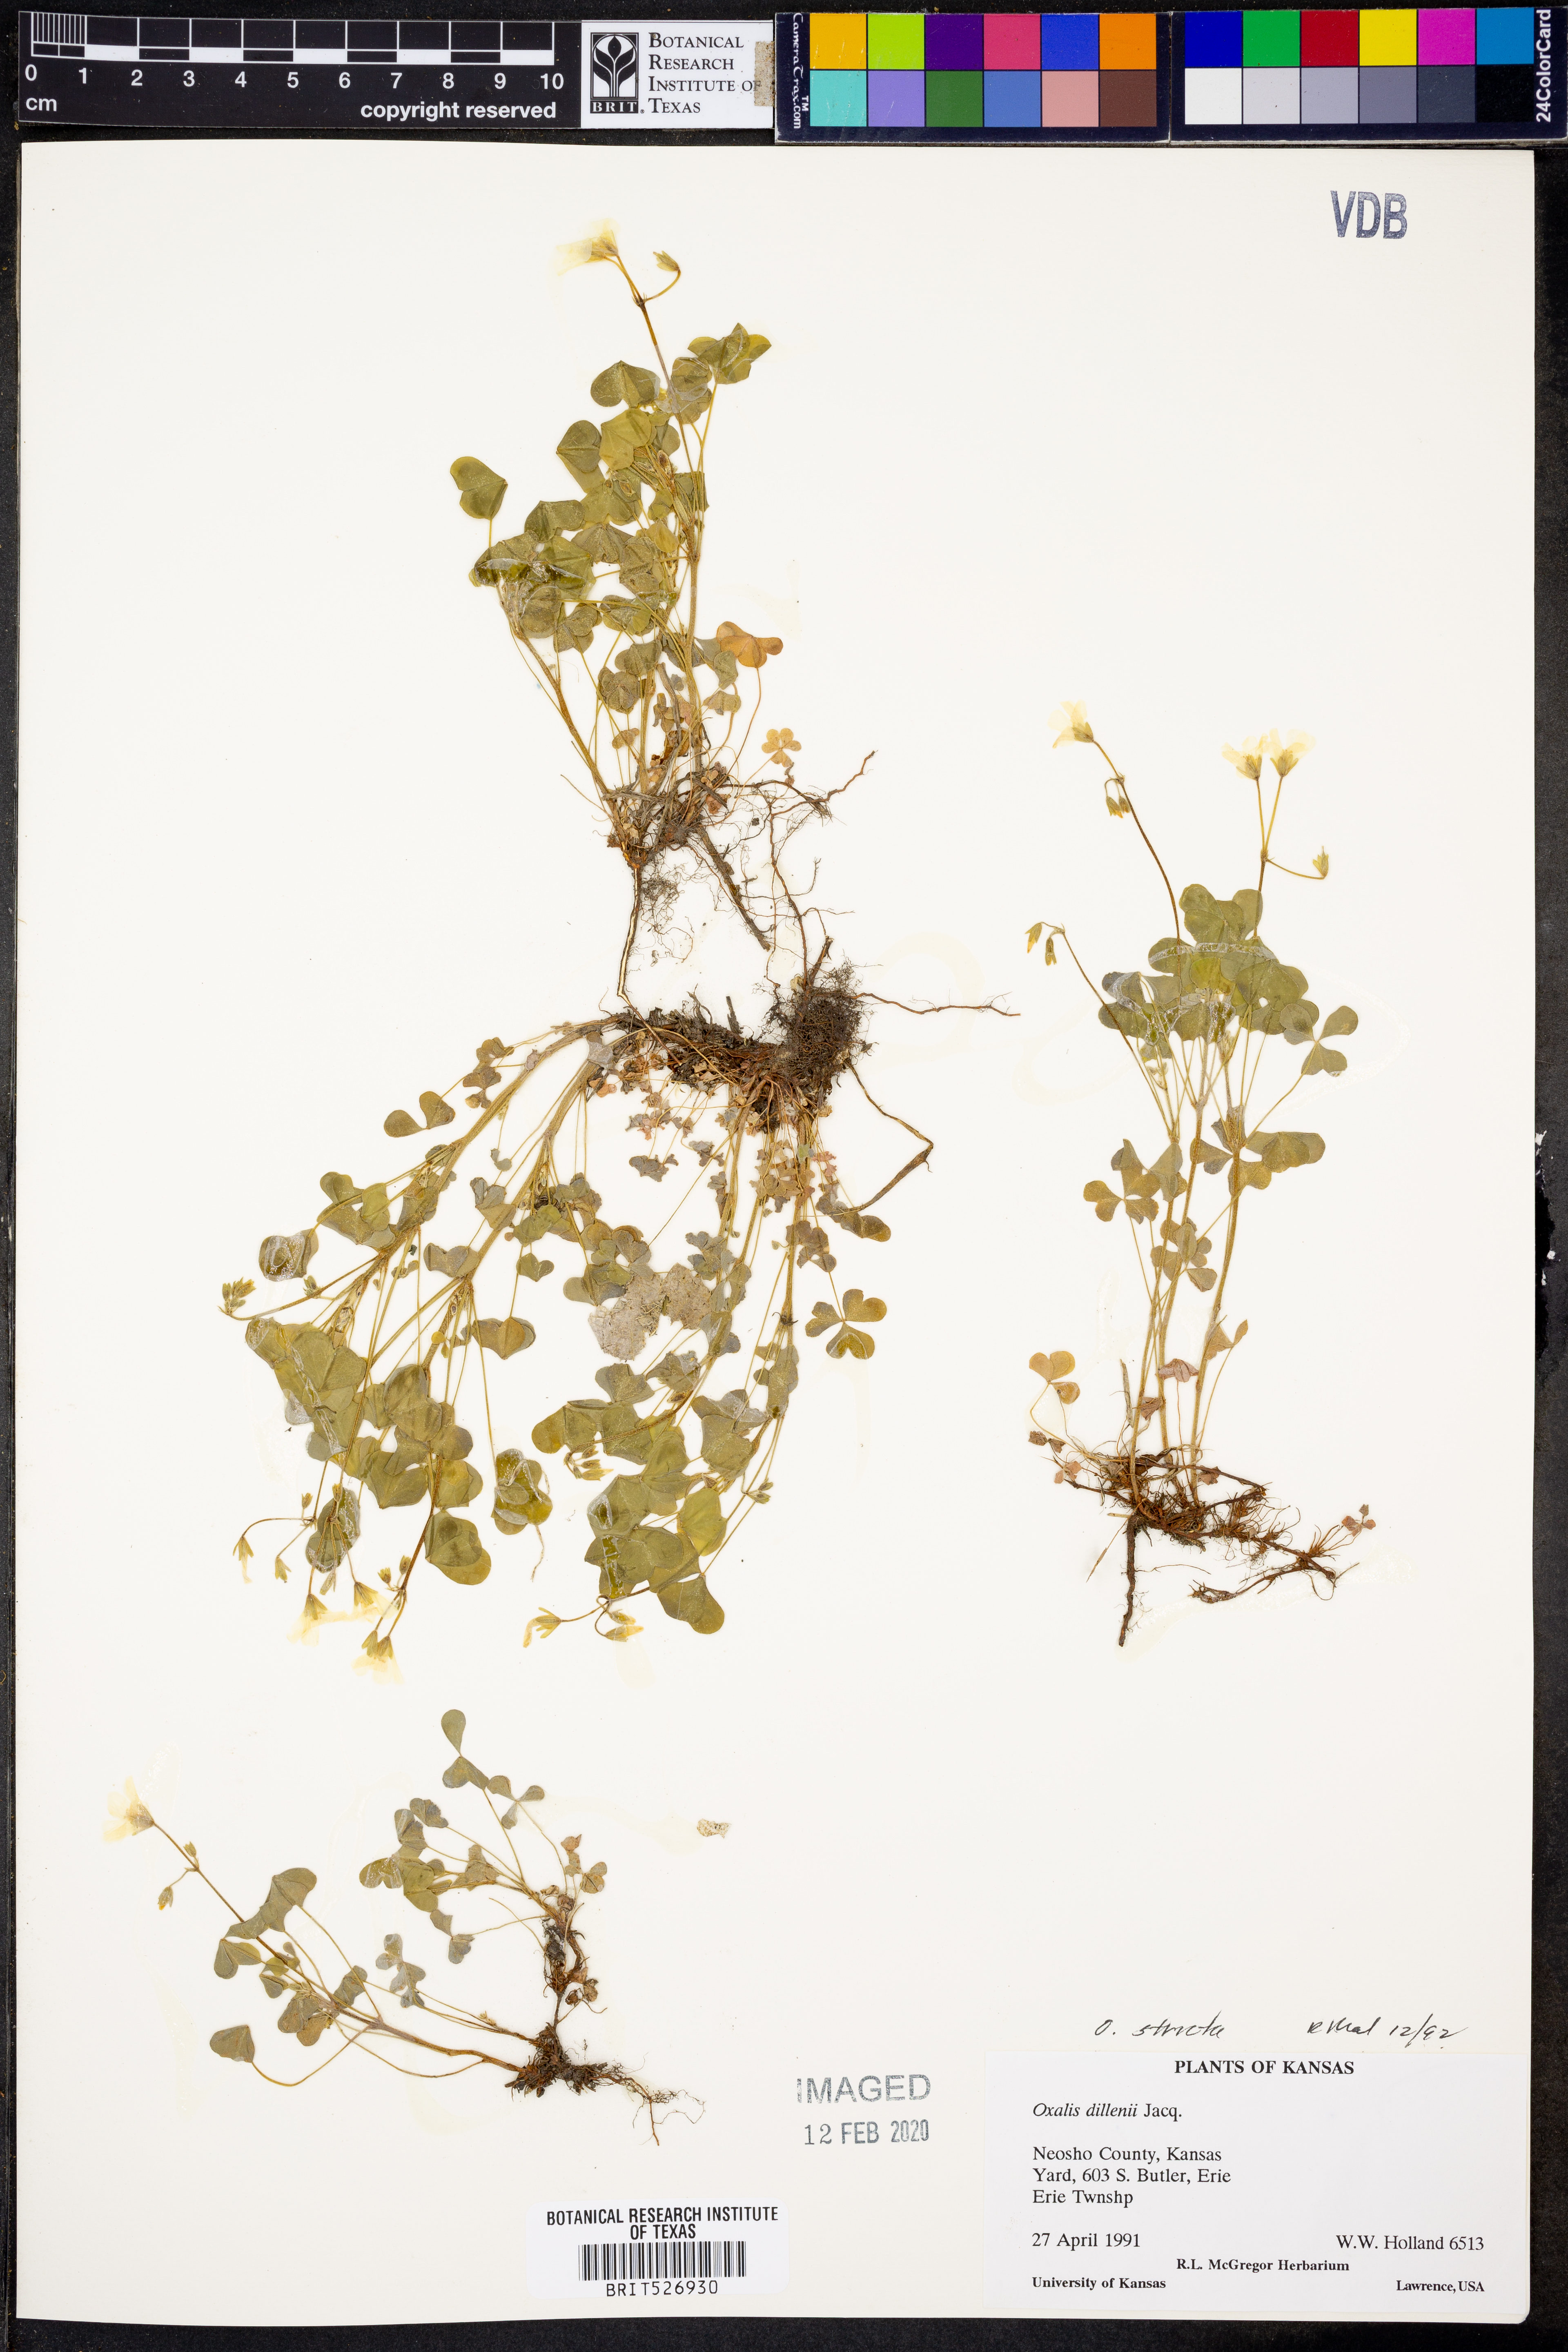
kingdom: Plantae
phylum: Tracheophyta
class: Magnoliopsida
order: Oxalidales
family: Oxalidaceae
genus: Oxalis
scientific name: Oxalis stricta
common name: Upright yellow-sorrel
